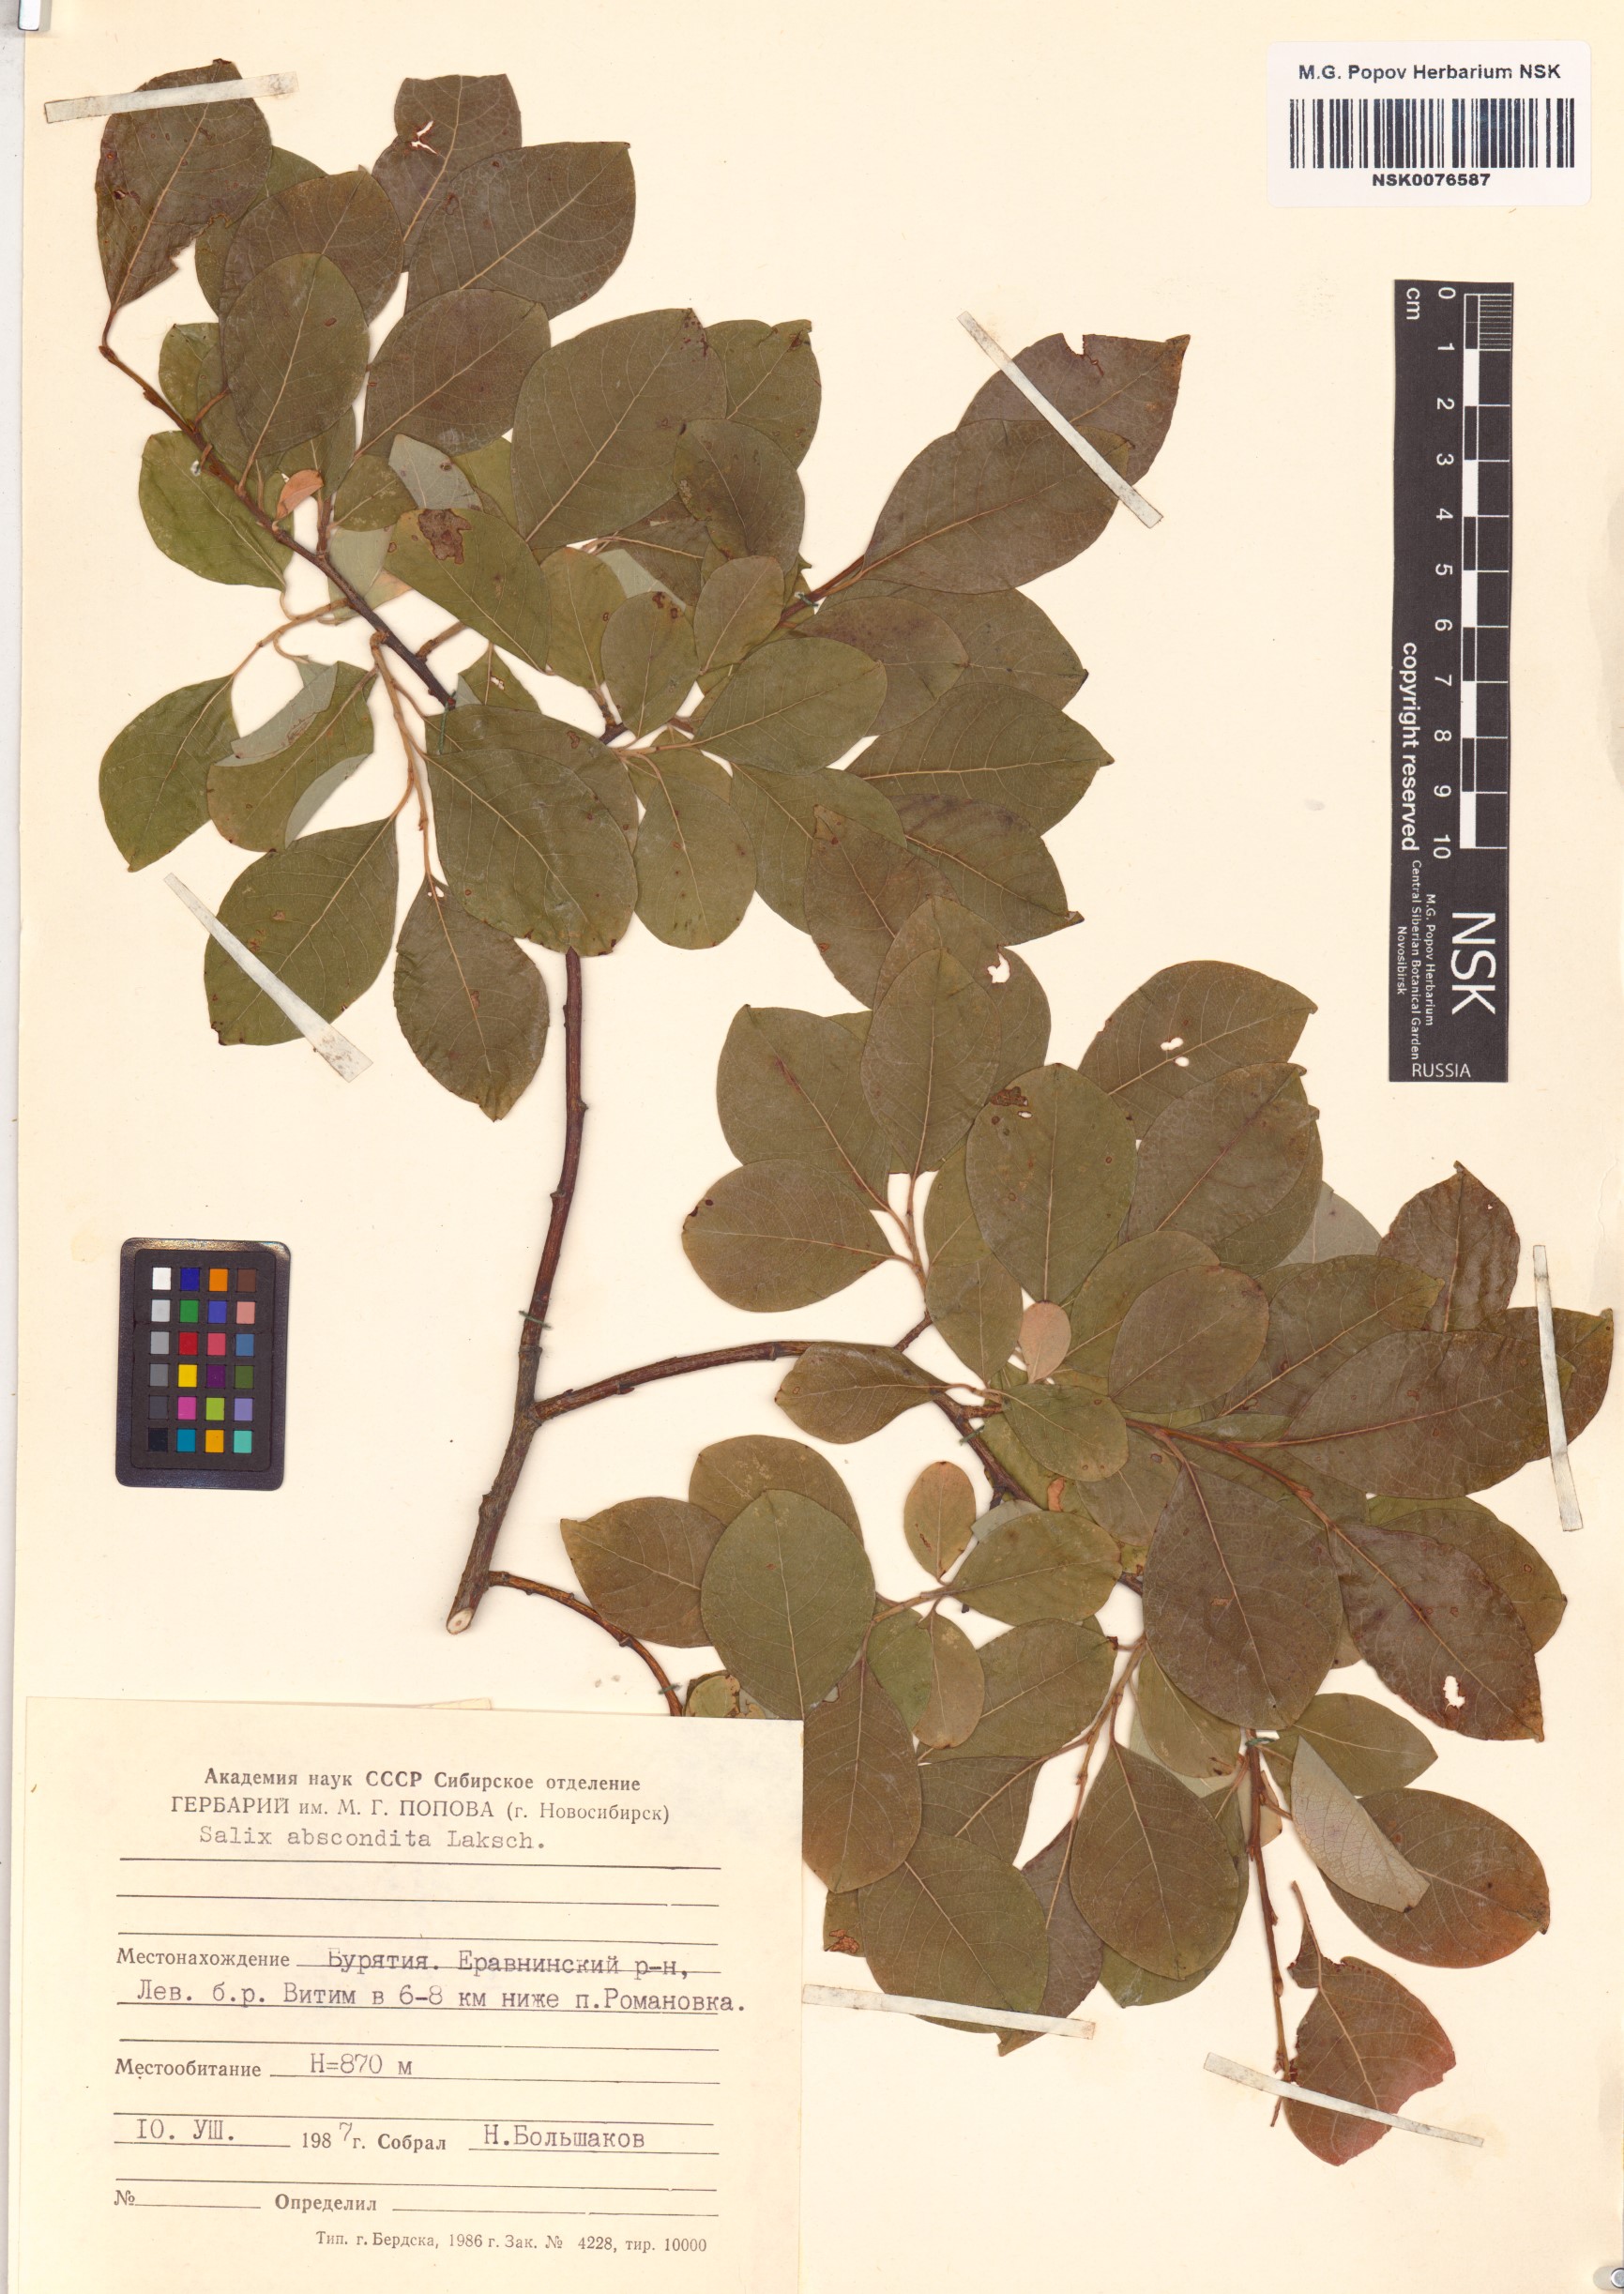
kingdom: Plantae
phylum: Tracheophyta
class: Magnoliopsida
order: Malpighiales
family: Salicaceae
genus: Salix
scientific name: Salix abscondita
